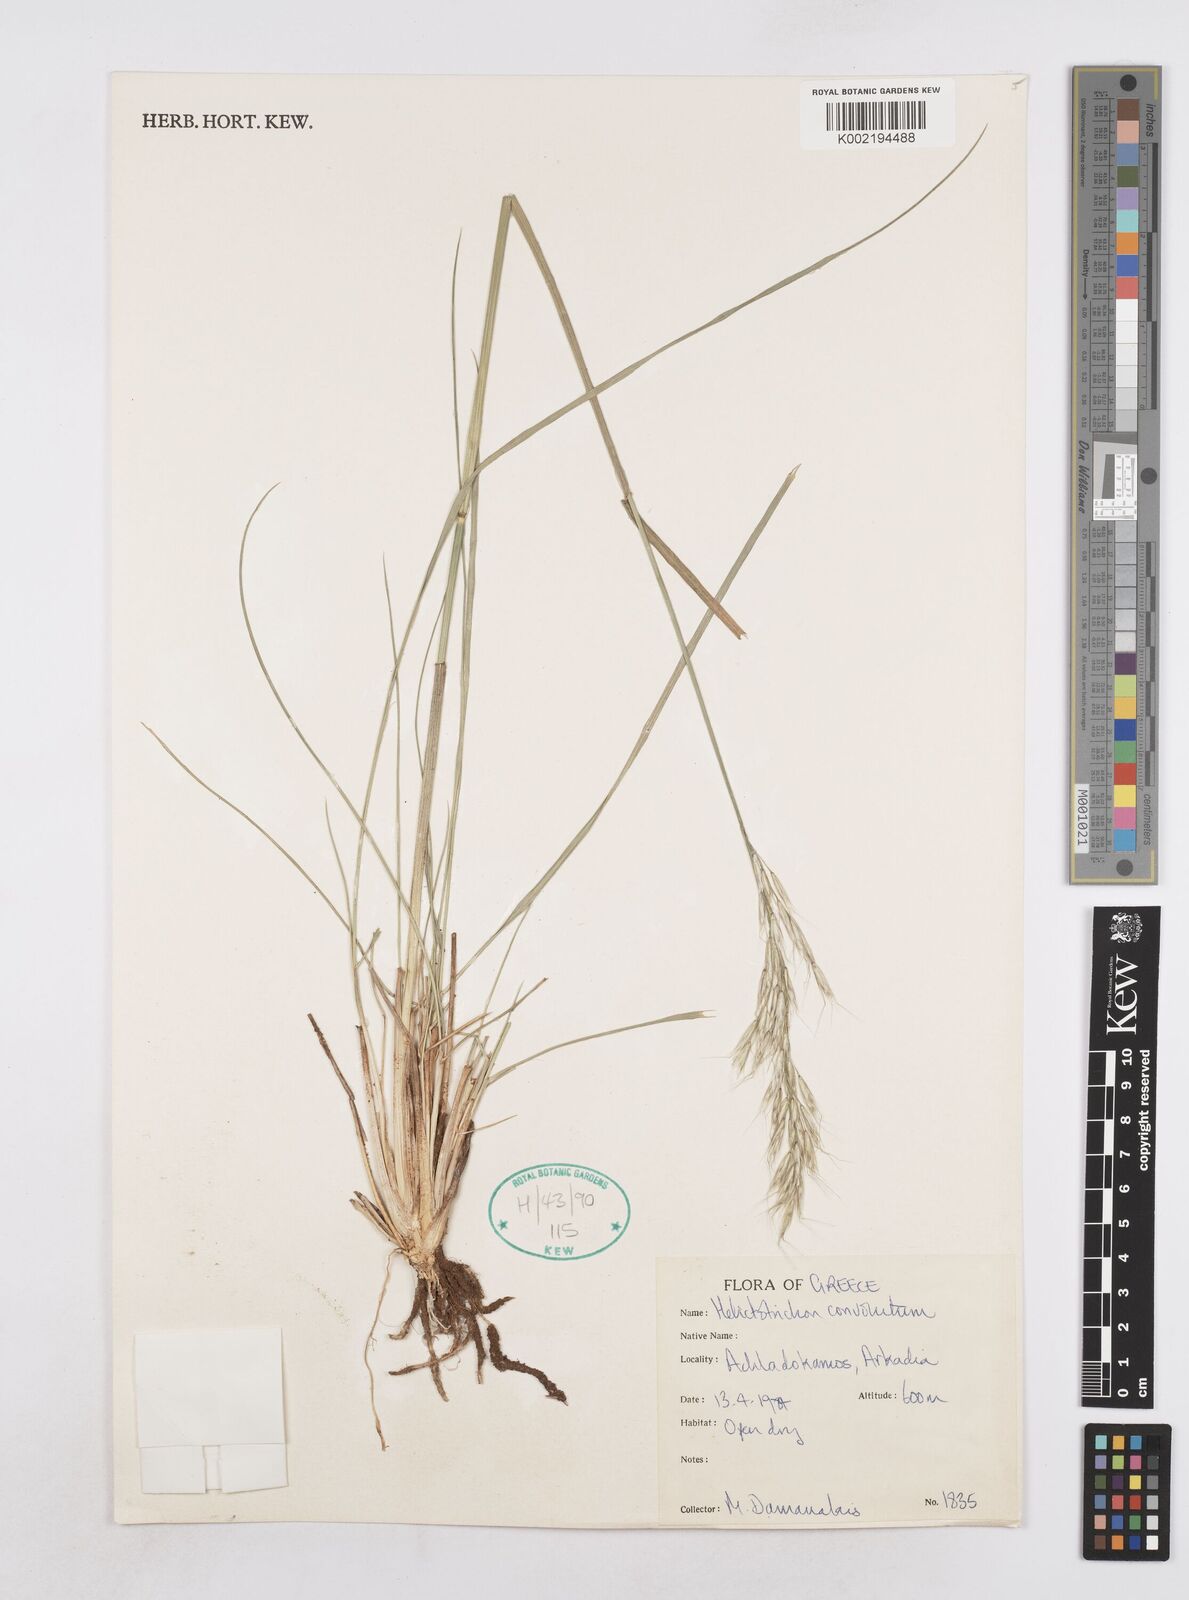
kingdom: Plantae
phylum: Tracheophyta
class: Liliopsida
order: Poales
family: Poaceae
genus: Helictotrichon
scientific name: Helictotrichon convolutum
